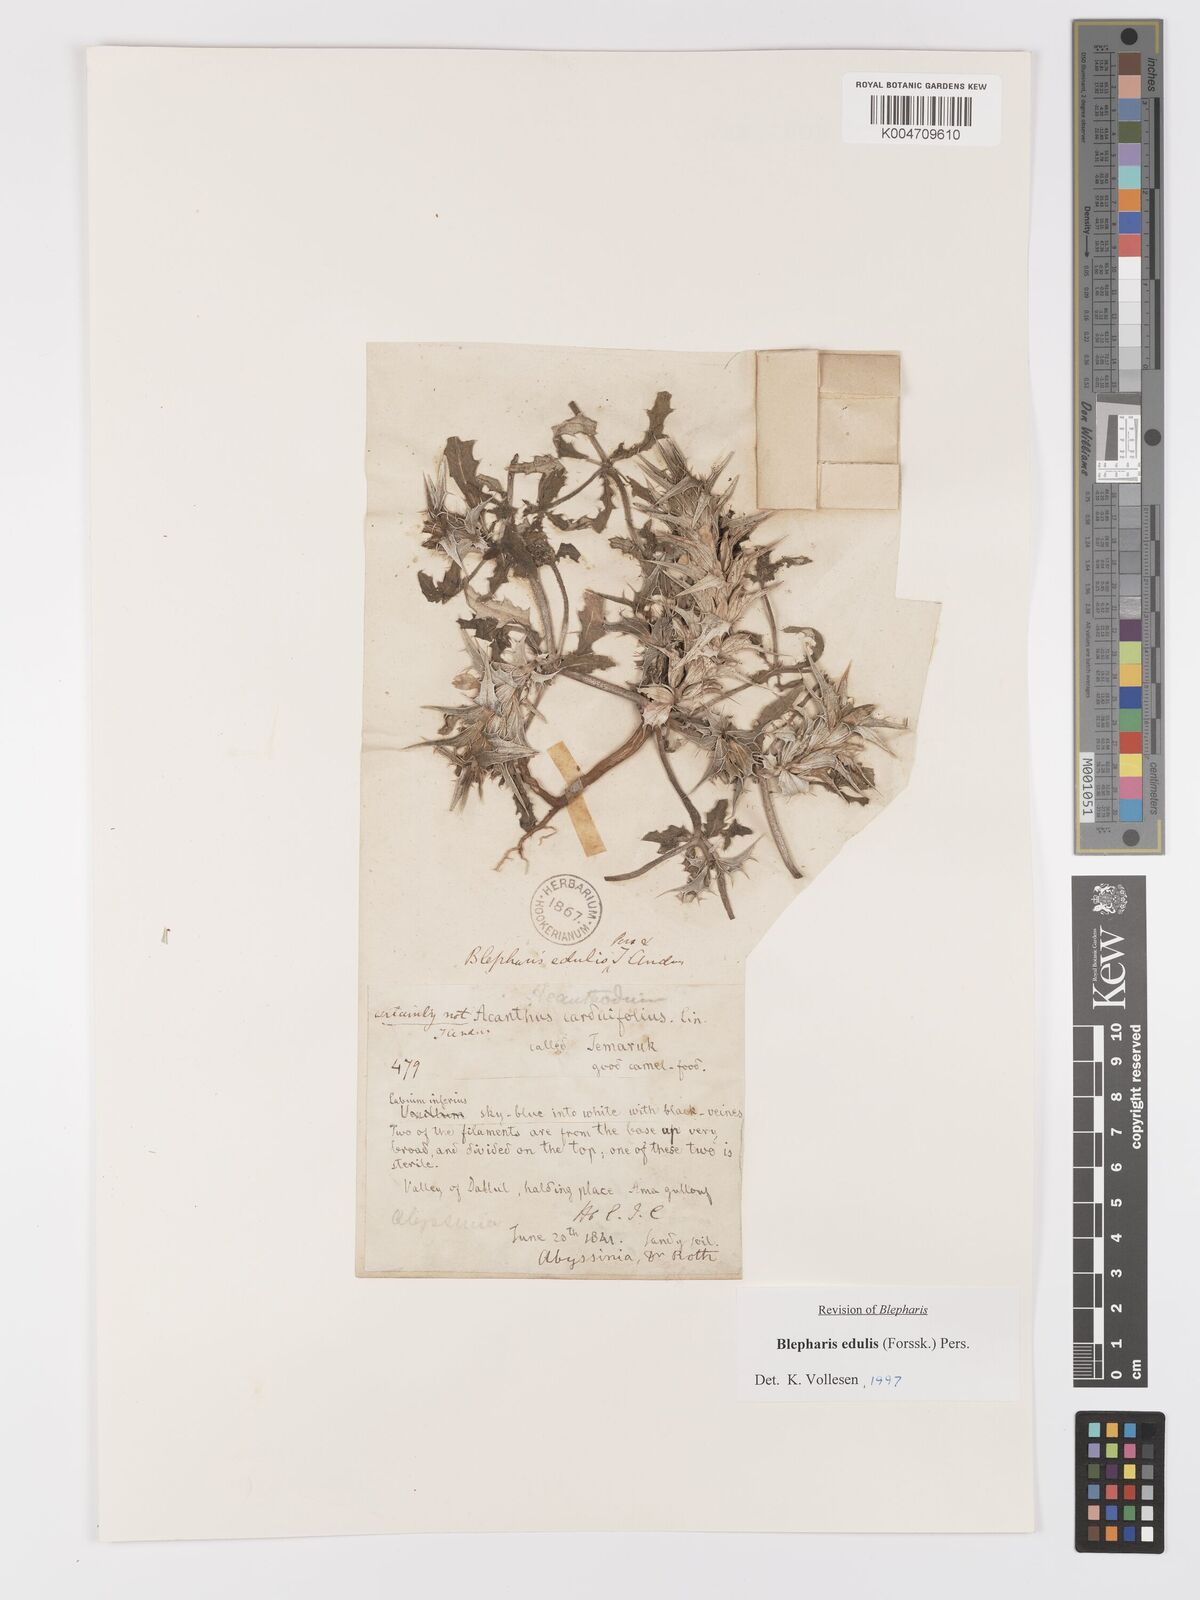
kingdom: Plantae
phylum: Tracheophyta
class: Magnoliopsida
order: Lamiales
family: Acanthaceae
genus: Blepharis
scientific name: Blepharis edulis
